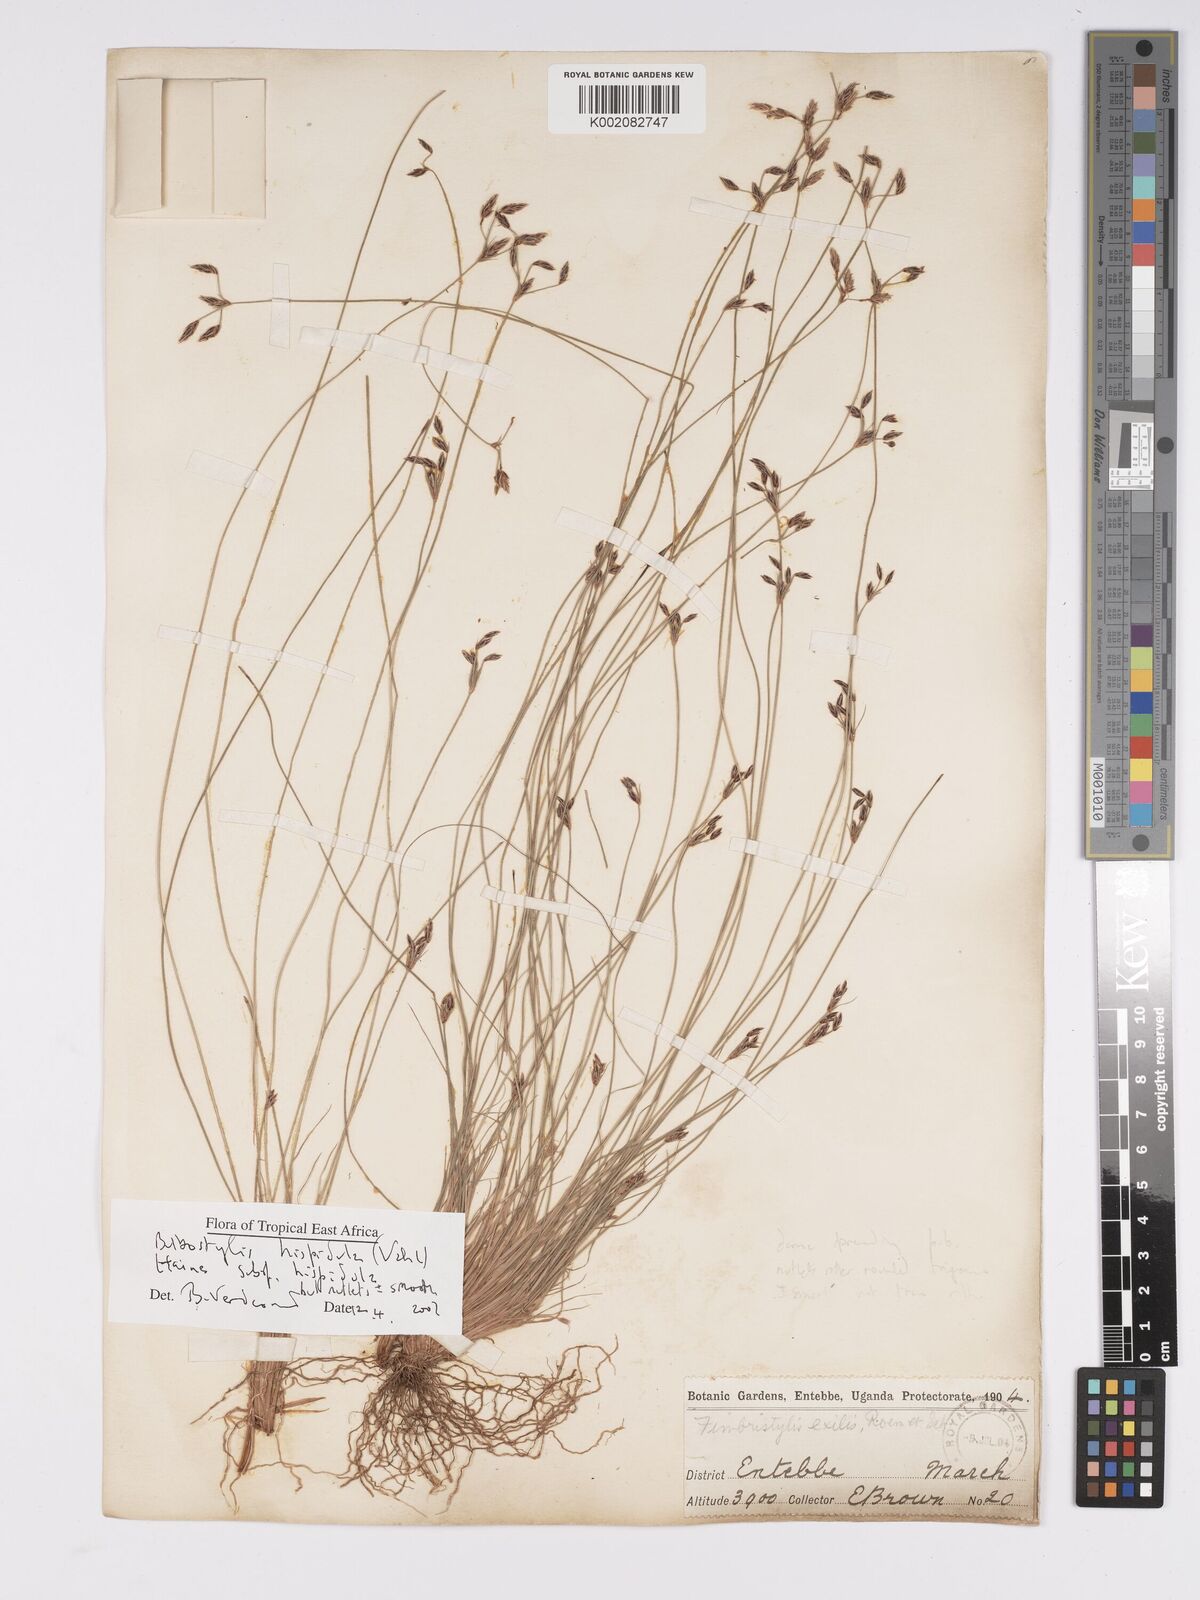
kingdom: Plantae
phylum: Tracheophyta
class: Liliopsida
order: Poales
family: Cyperaceae
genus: Bulbostylis
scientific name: Bulbostylis hispidula
